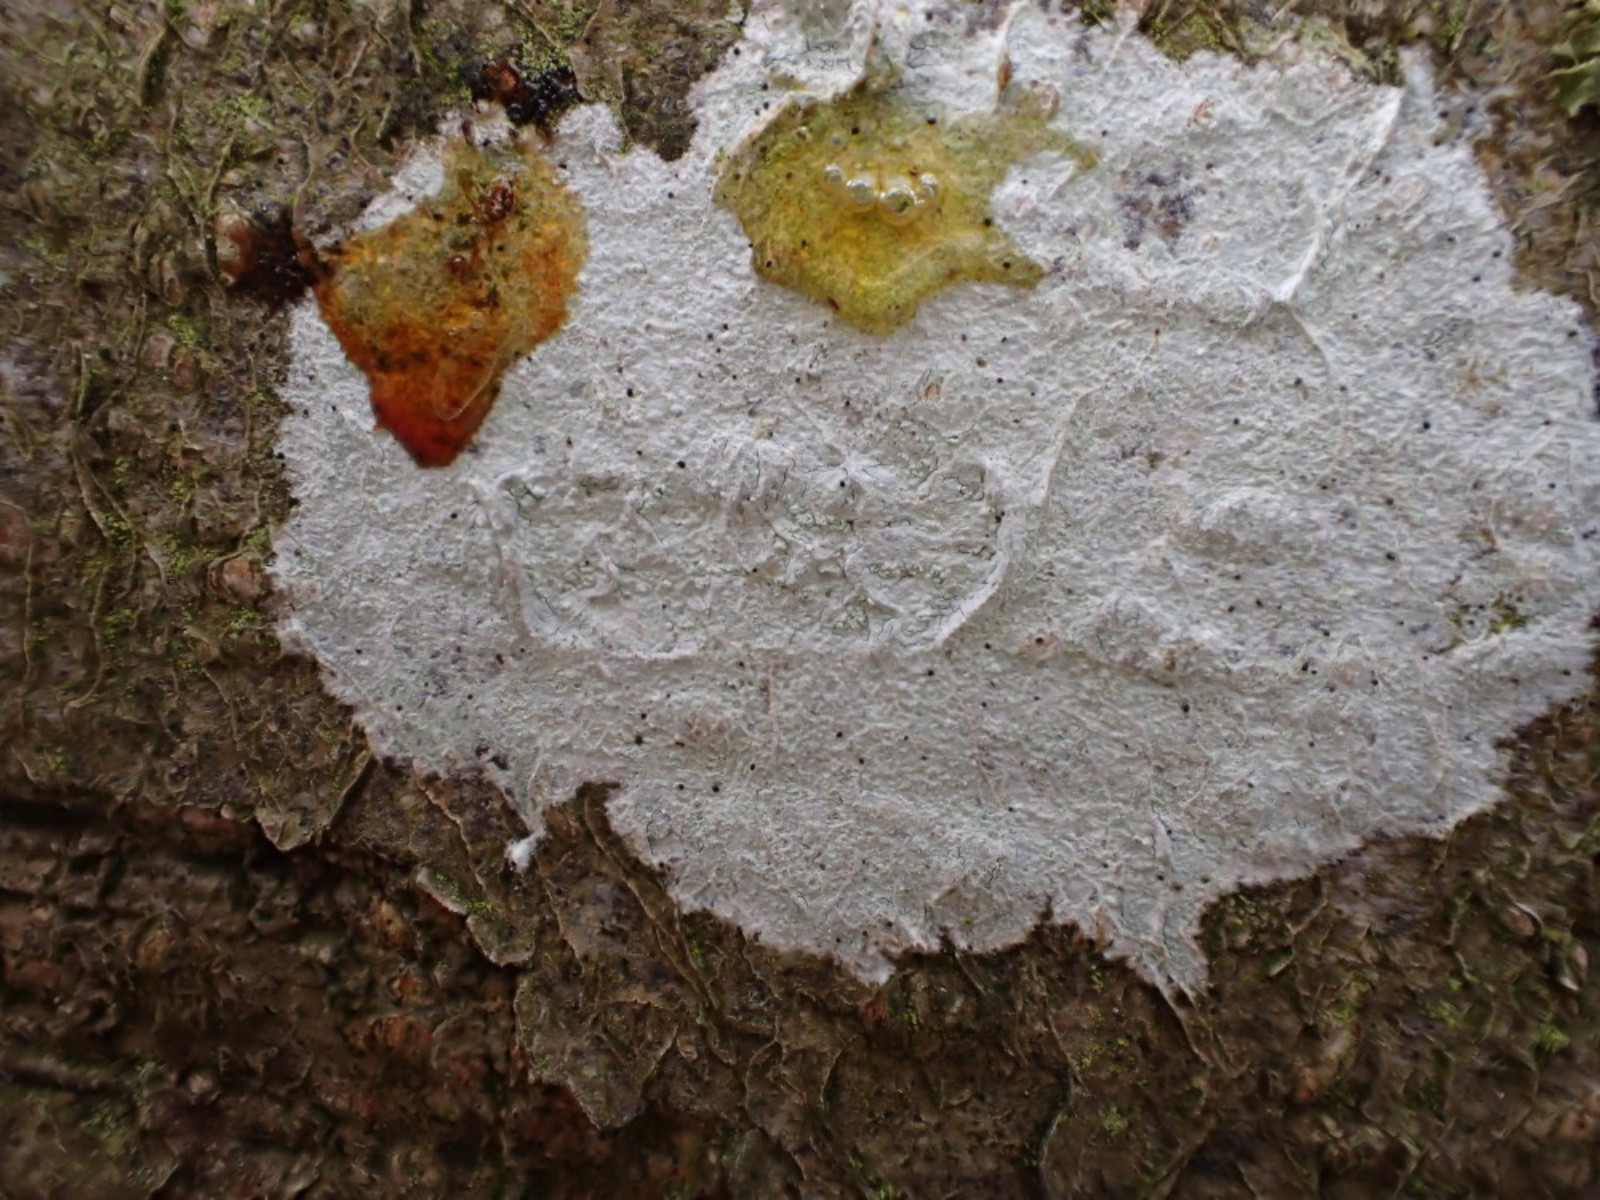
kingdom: Fungi
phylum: Ascomycota
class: Lecanoromycetes
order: Ostropales
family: Phlyctidaceae
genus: Phlyctis
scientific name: Phlyctis argena
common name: almindelig sølvlav
